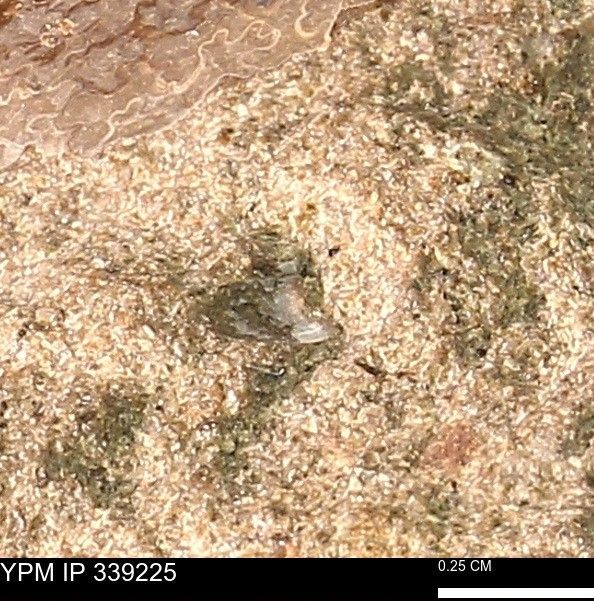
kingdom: Animalia
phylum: Mollusca
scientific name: Mollusca
